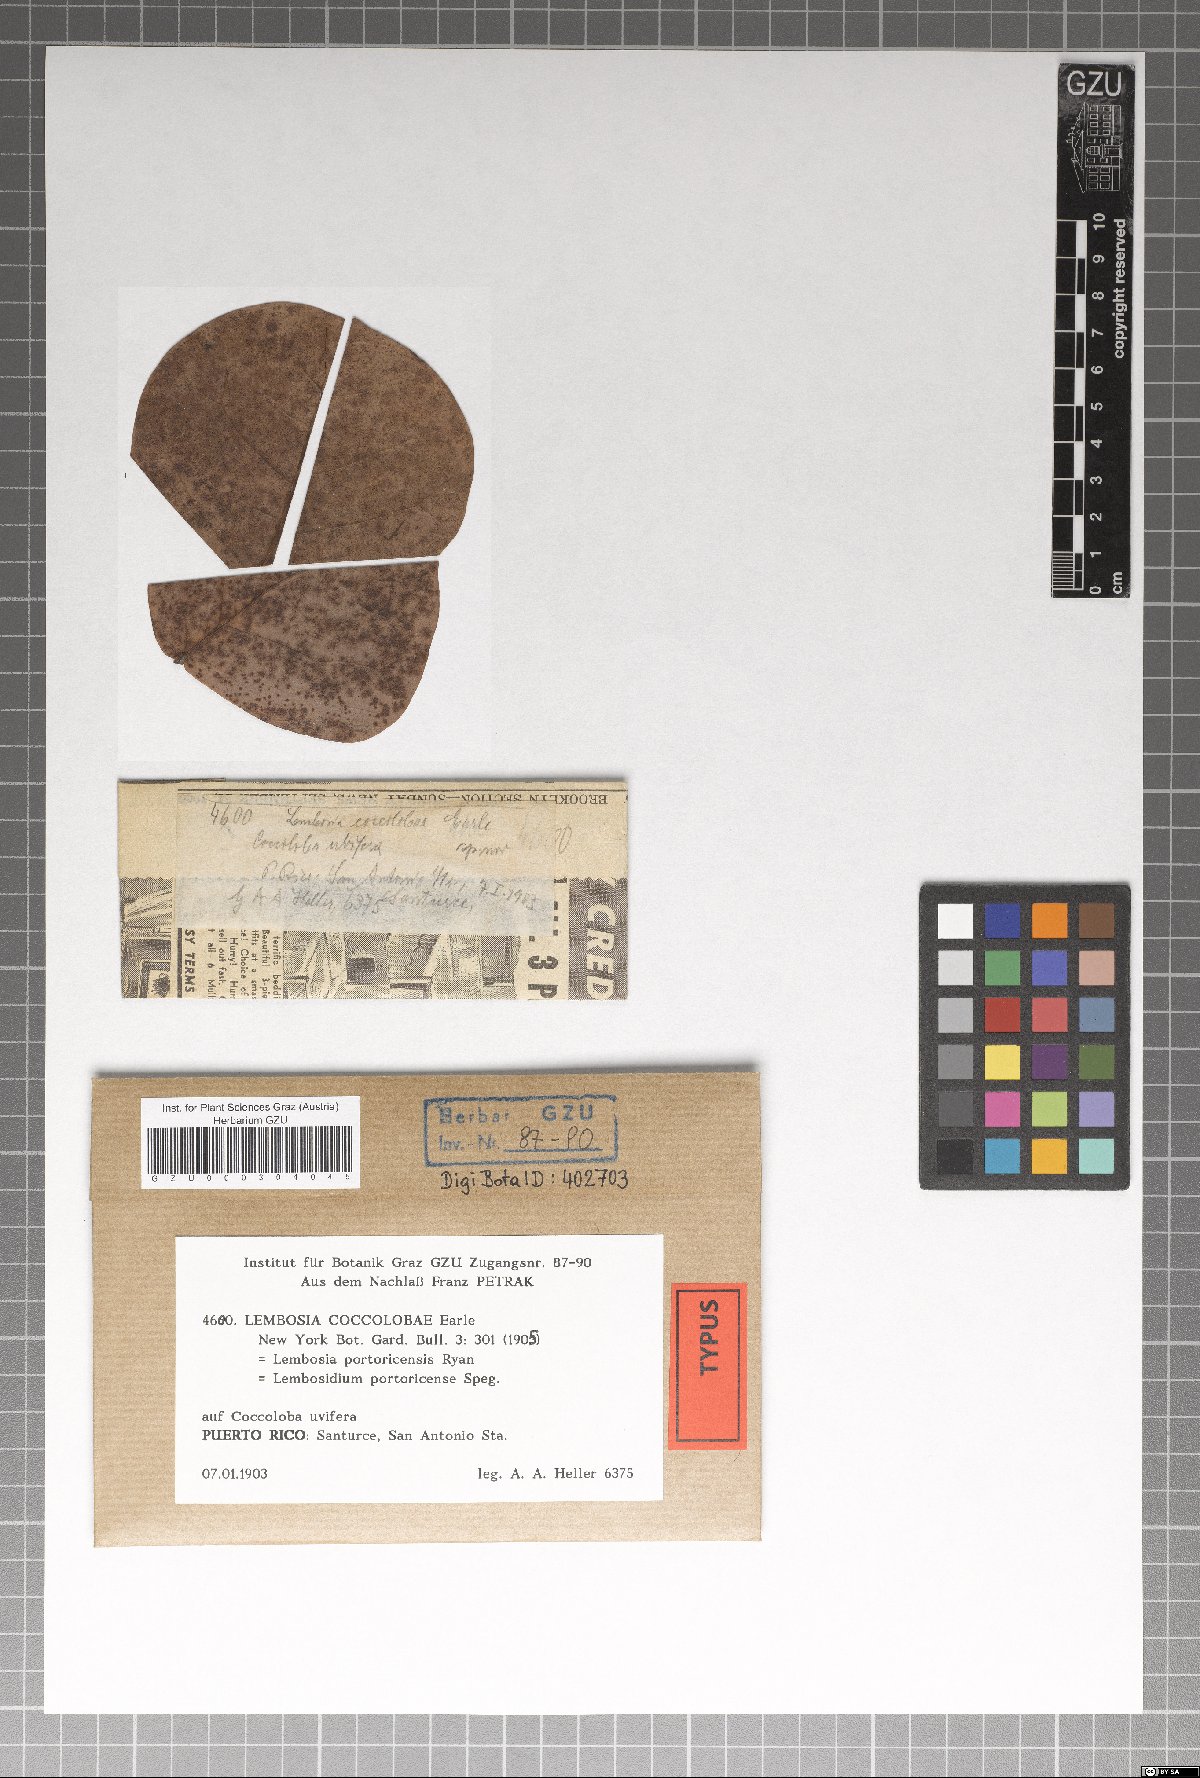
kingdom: Fungi
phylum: Ascomycota
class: Dothideomycetes
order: Asterinales
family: Asterinaceae
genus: Lembosia
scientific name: Lembosia coccolobae
